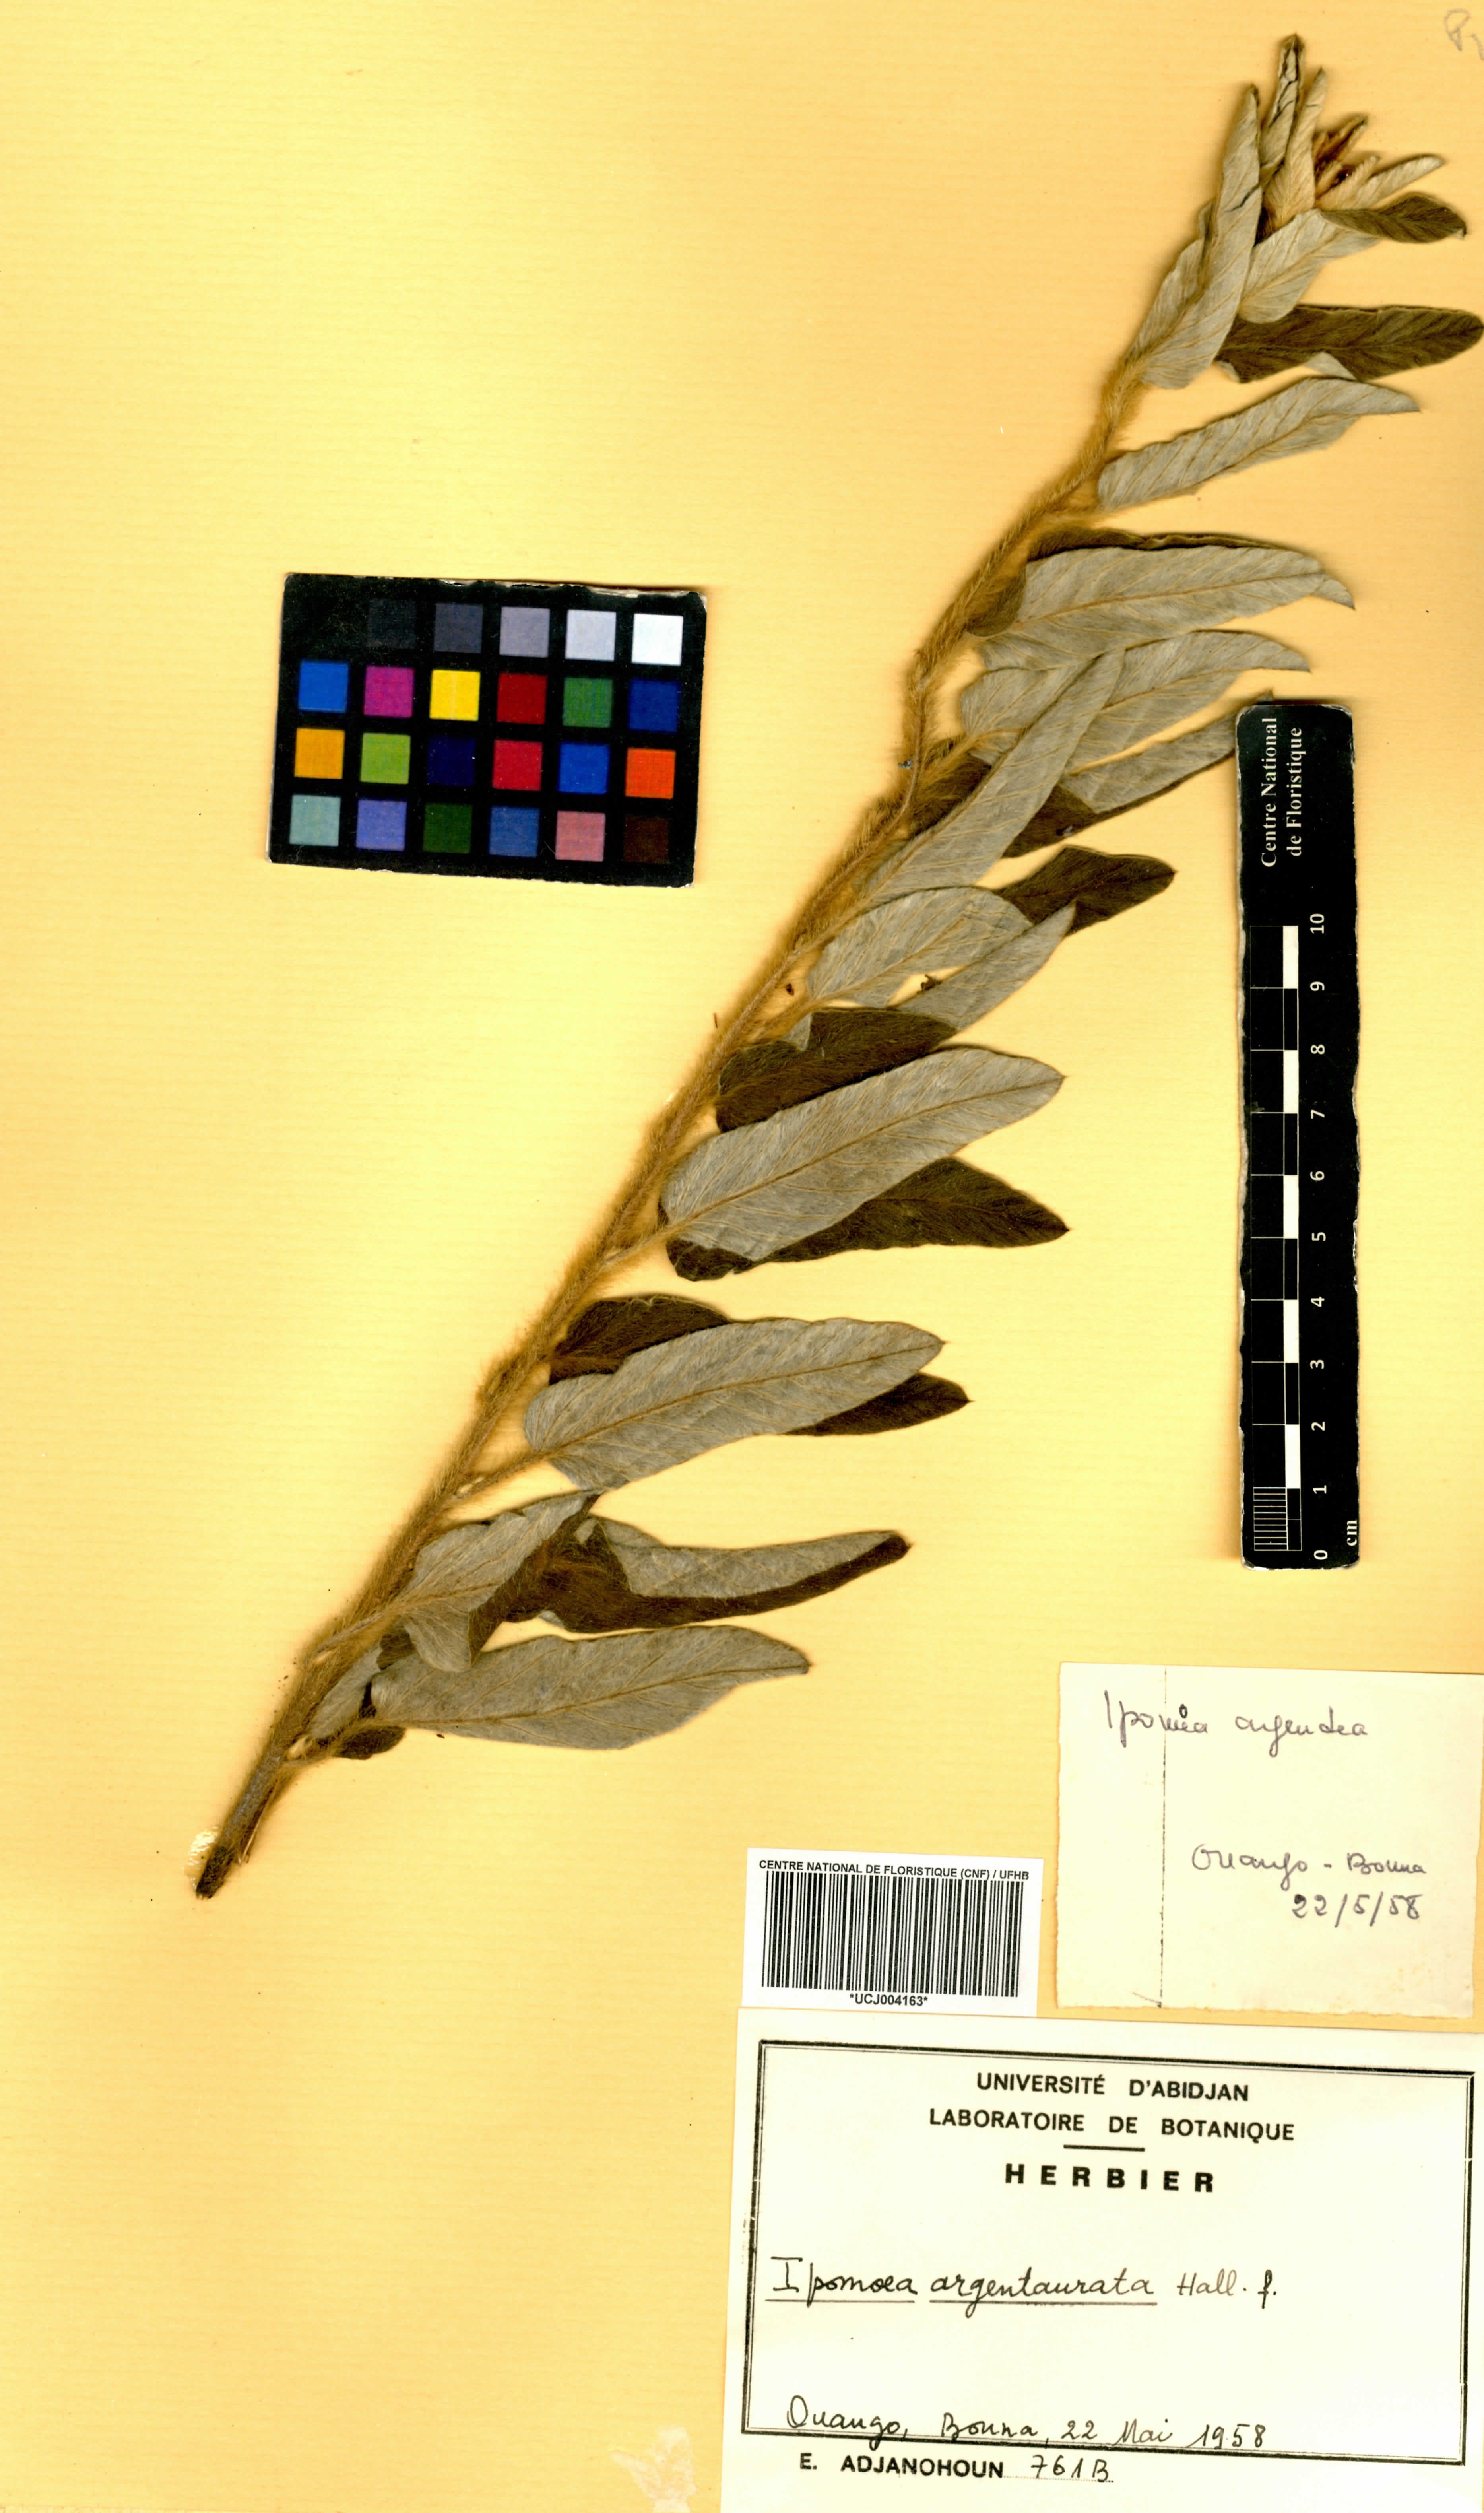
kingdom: Plantae
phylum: Tracheophyta
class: Magnoliopsida
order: Solanales
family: Convolvulaceae
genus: Ipomoea
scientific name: Ipomoea argentaurata
